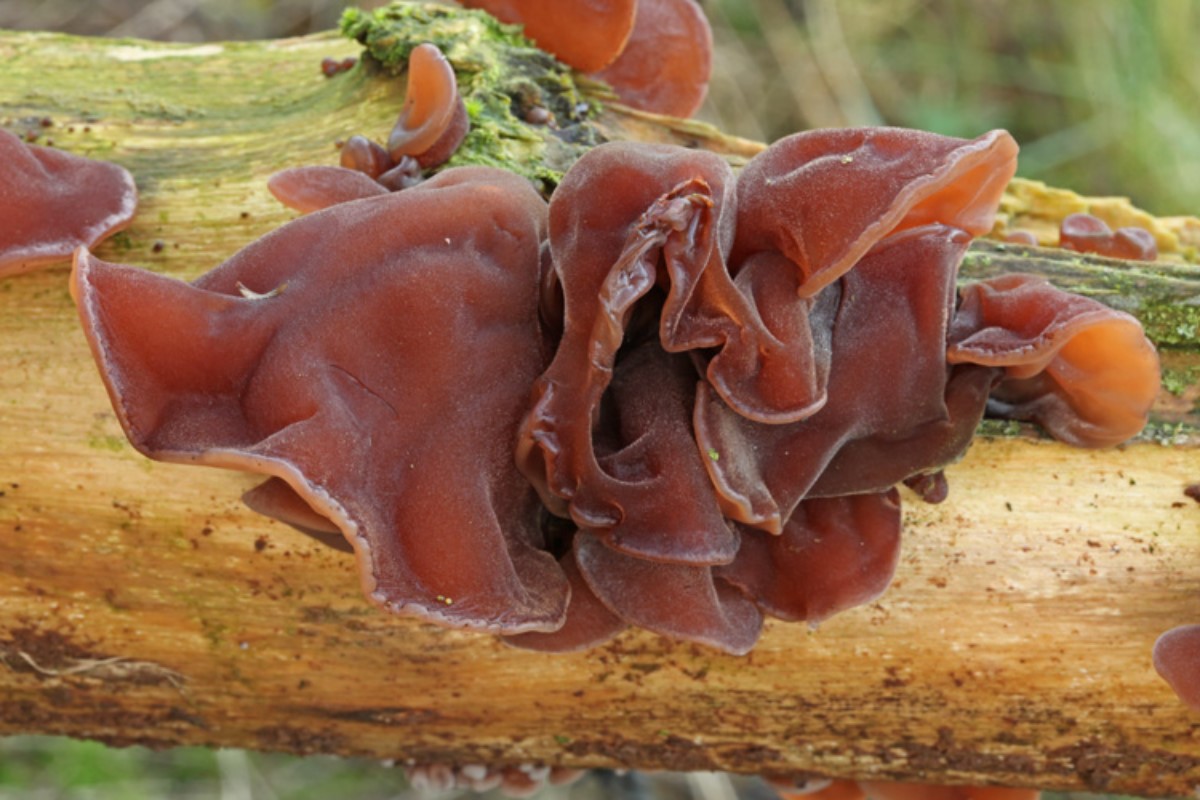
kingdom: Fungi
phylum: Basidiomycota
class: Agaricomycetes
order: Auriculariales
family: Auriculariaceae
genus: Auricularia
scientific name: Auricularia auricula-judae
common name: almindelig judasøre
